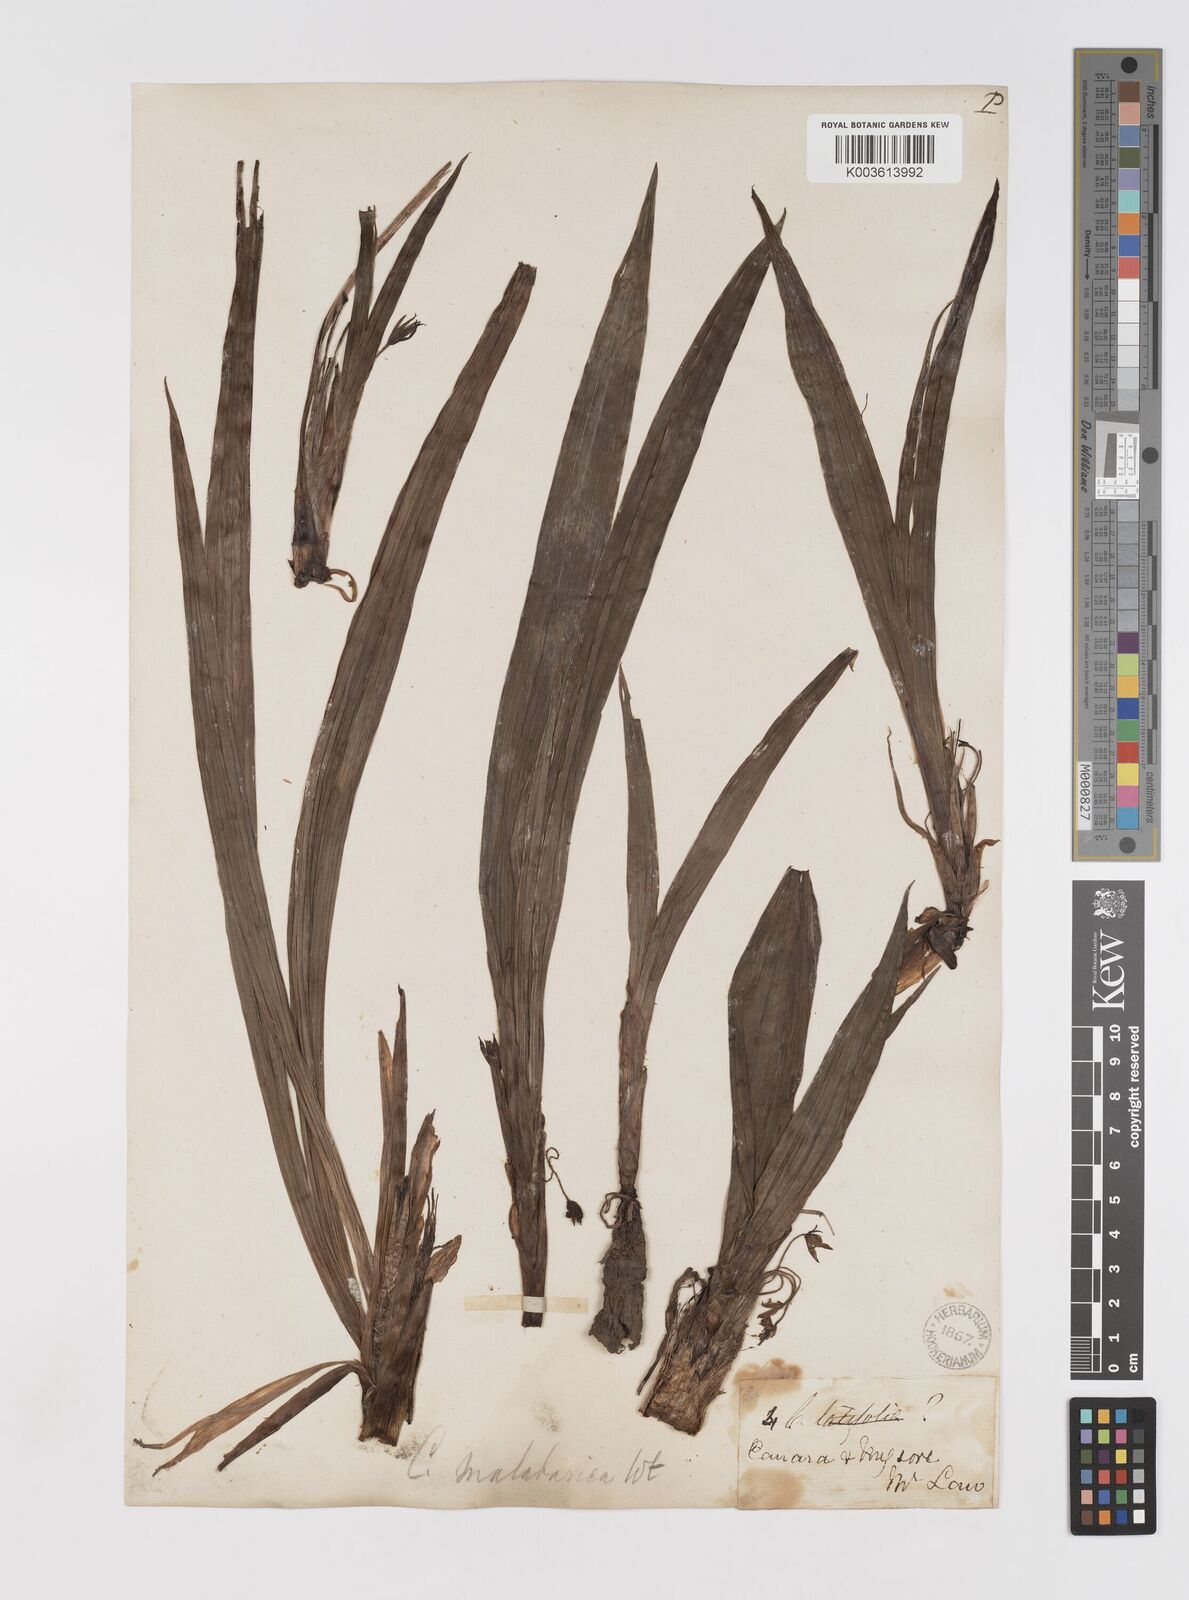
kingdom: Plantae
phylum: Tracheophyta
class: Liliopsida
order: Asparagales
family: Hypoxidaceae
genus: Curculigo
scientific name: Curculigo orchioides
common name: Golden eye-grass
